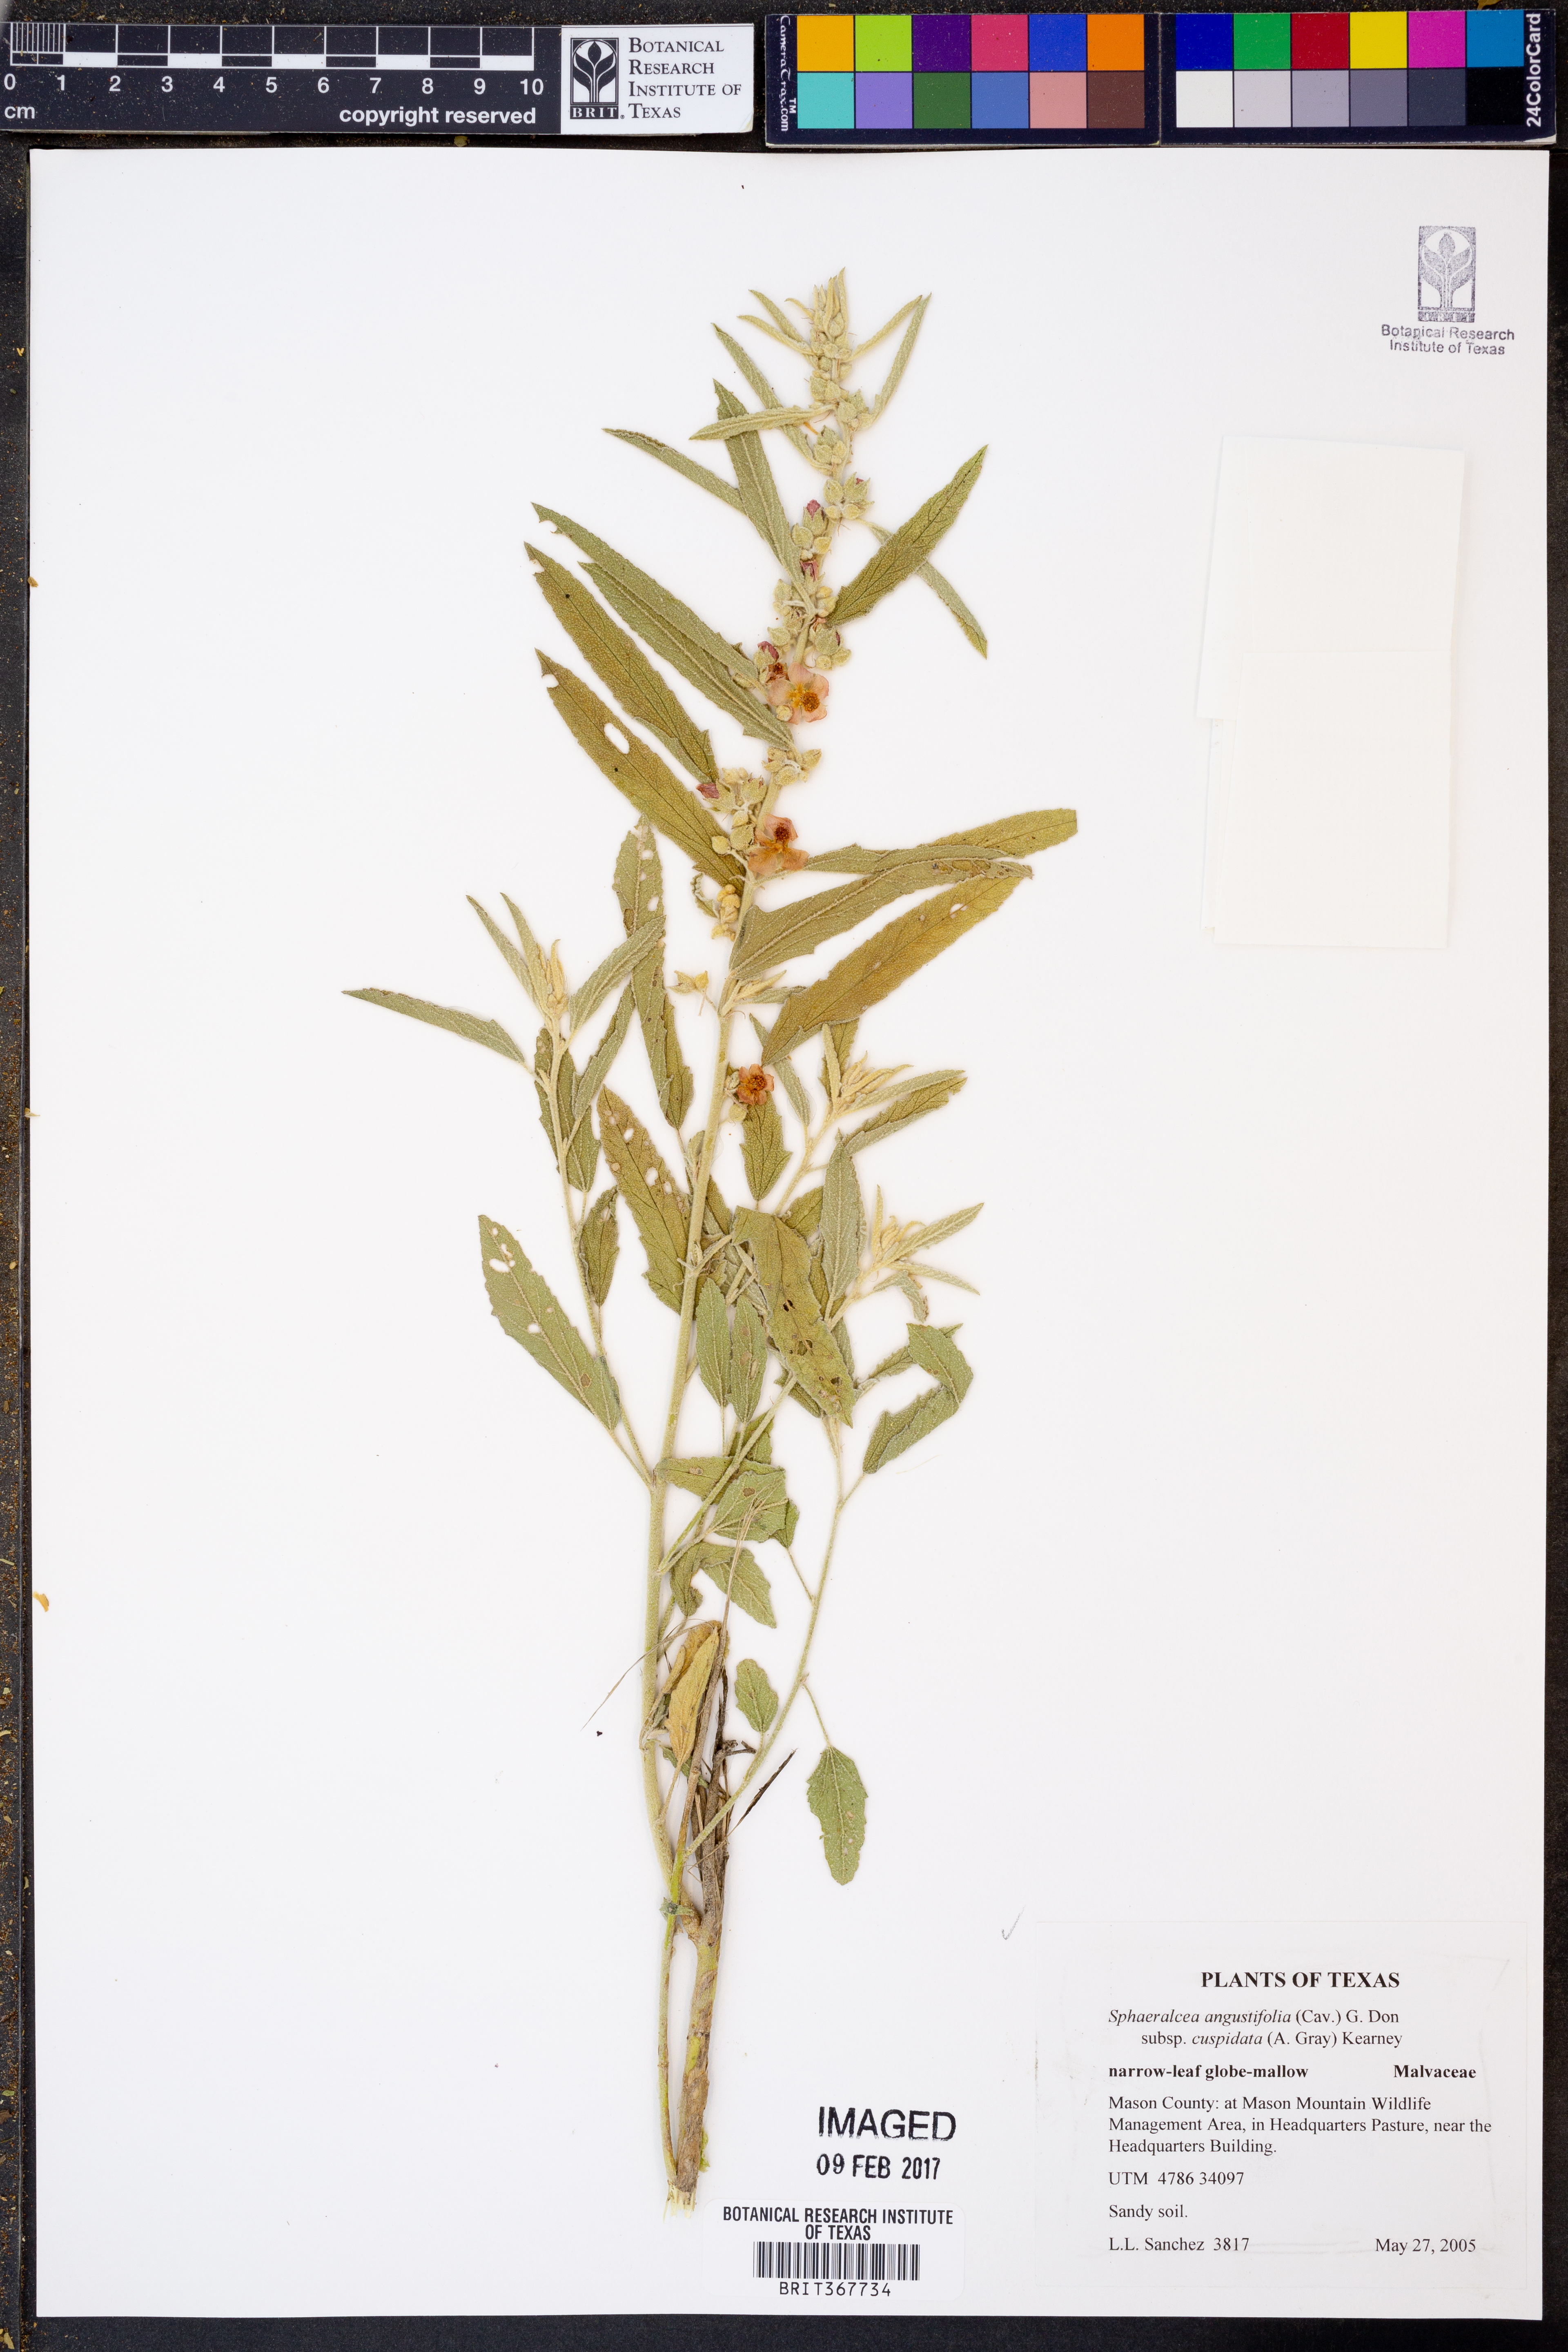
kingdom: Plantae
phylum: Tracheophyta
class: Magnoliopsida
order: Malvales
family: Malvaceae
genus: Sphaeralcea
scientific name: Sphaeralcea angustifolia
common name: Copper globe-mallow
